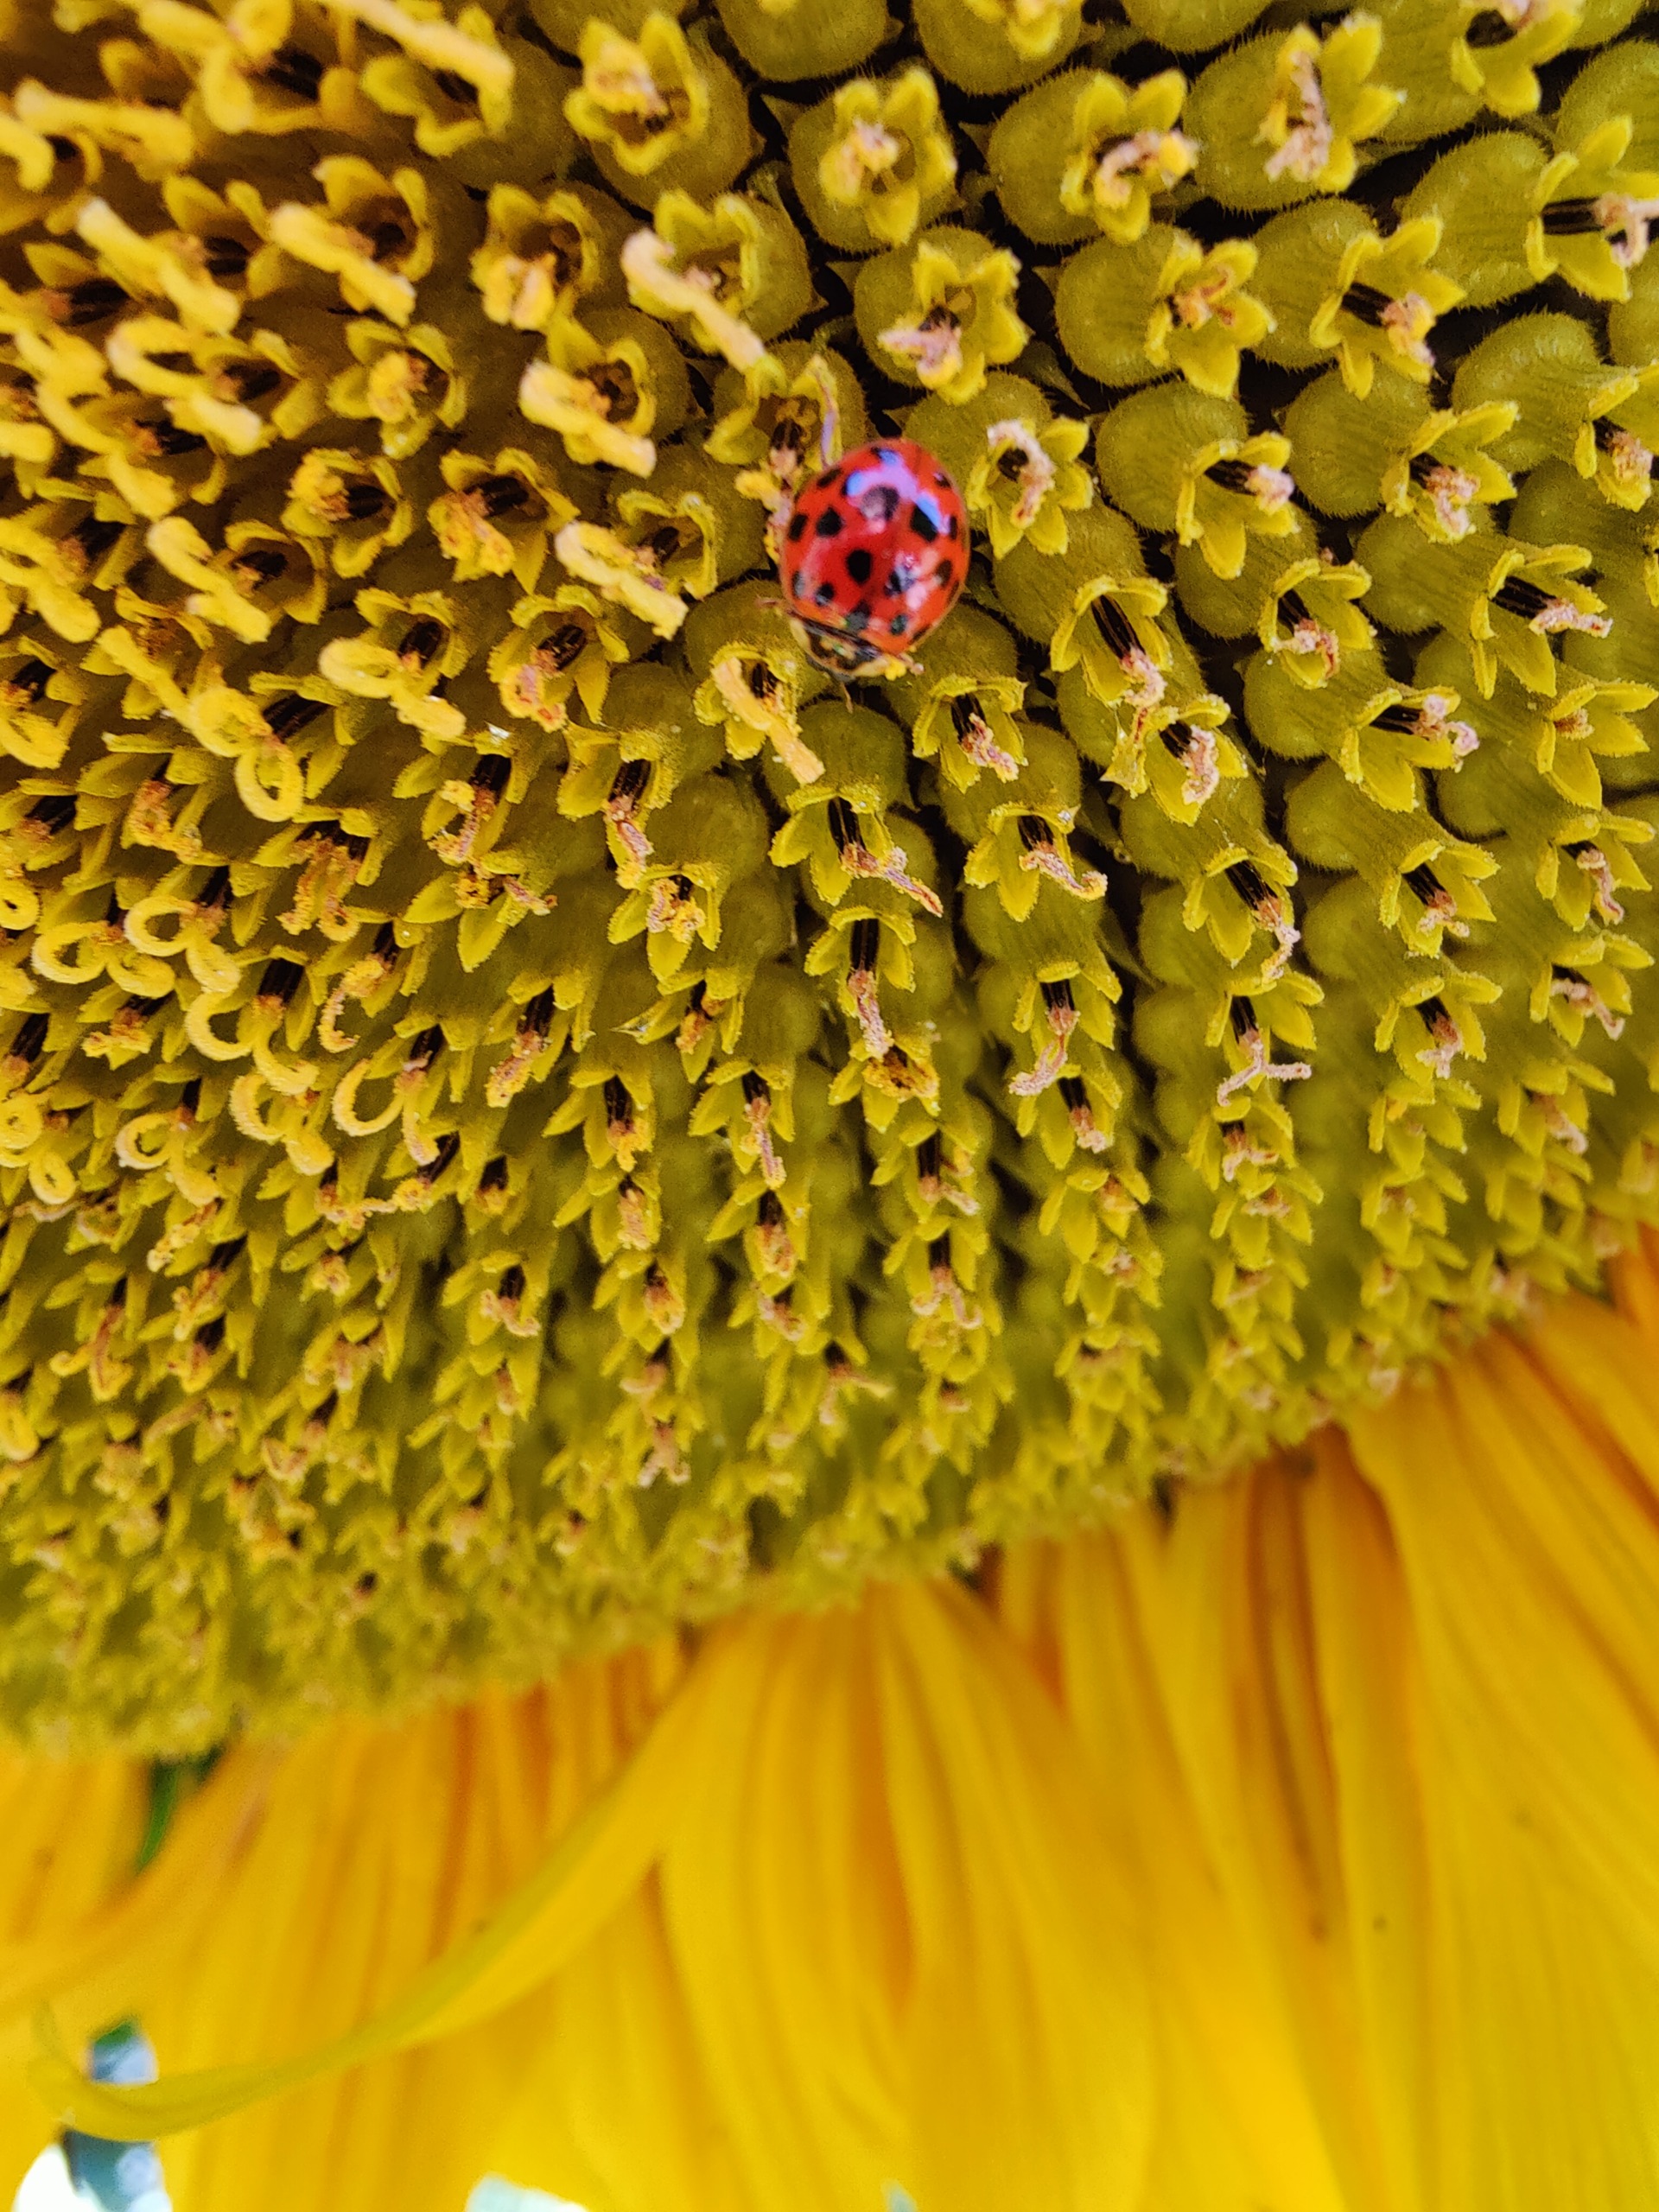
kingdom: Animalia
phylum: Arthropoda
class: Insecta
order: Coleoptera
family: Coccinellidae
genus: Harmonia
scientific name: Harmonia axyridis
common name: Harlekinmariehøne
